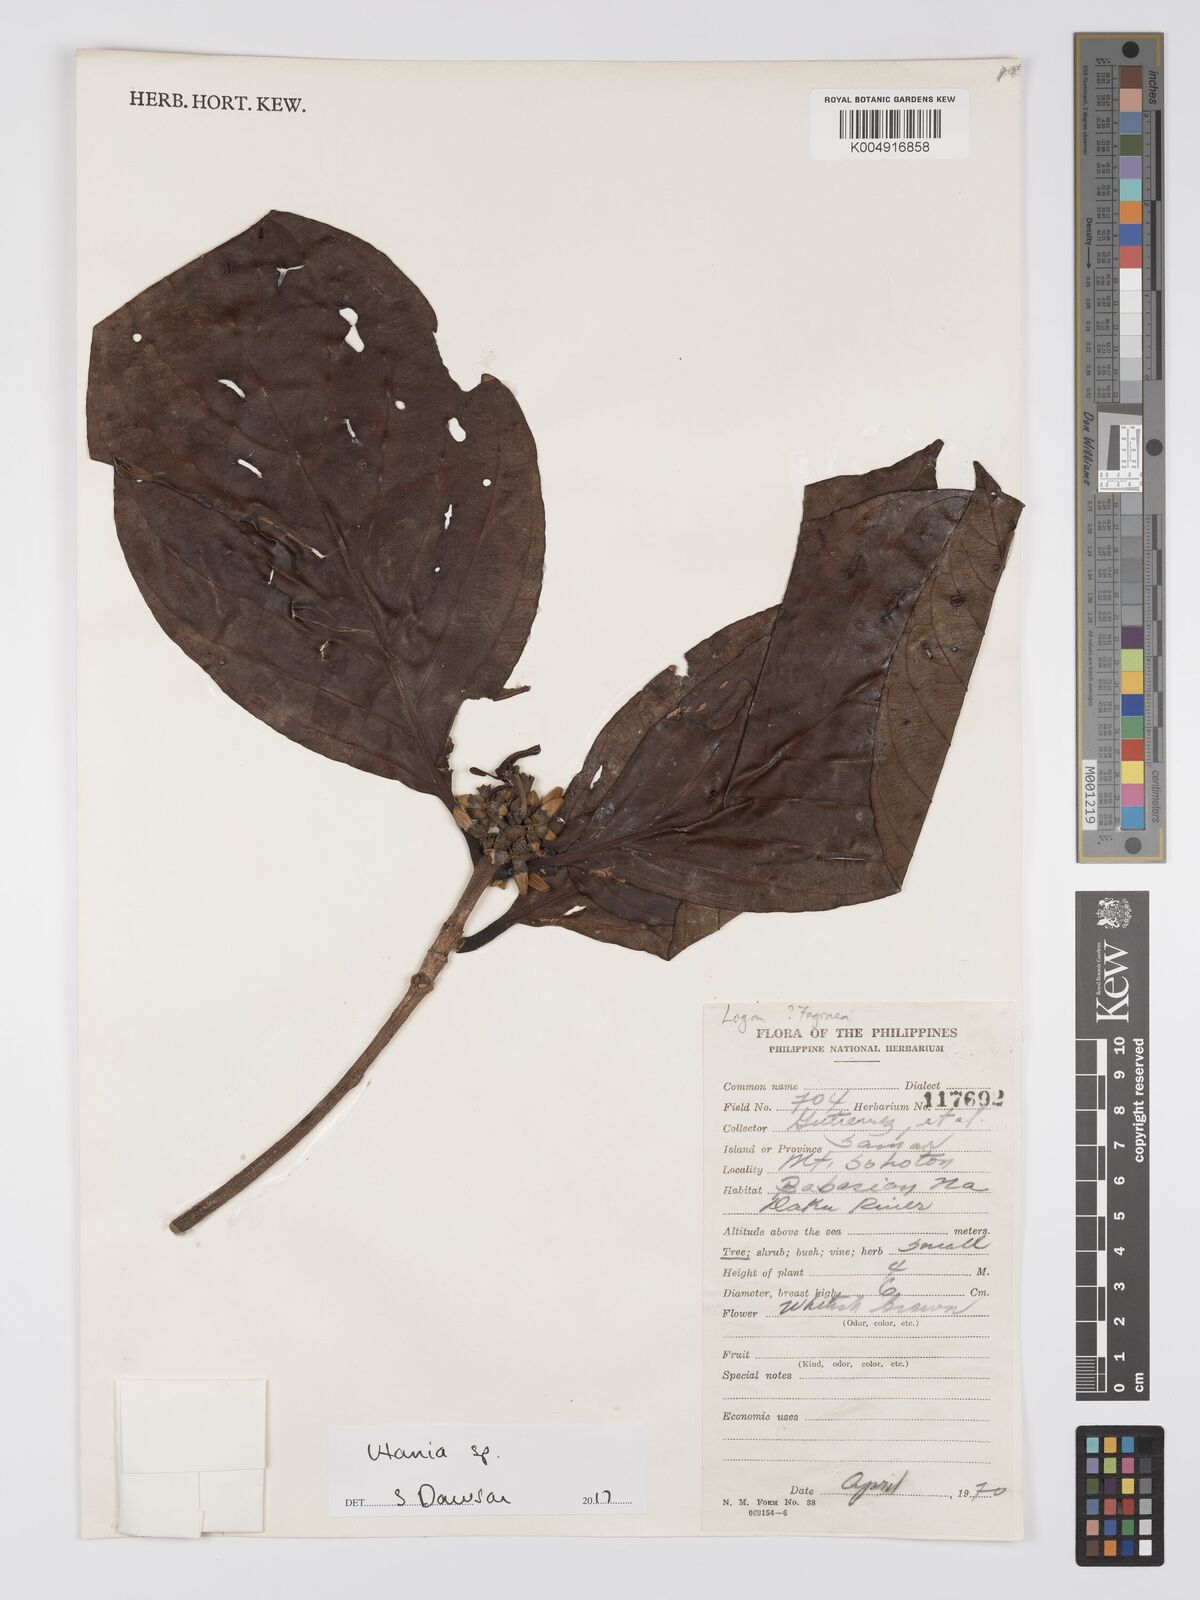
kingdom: Plantae
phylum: Tracheophyta
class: Magnoliopsida
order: Gentianales
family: Gentianaceae
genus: Utania
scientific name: Utania
